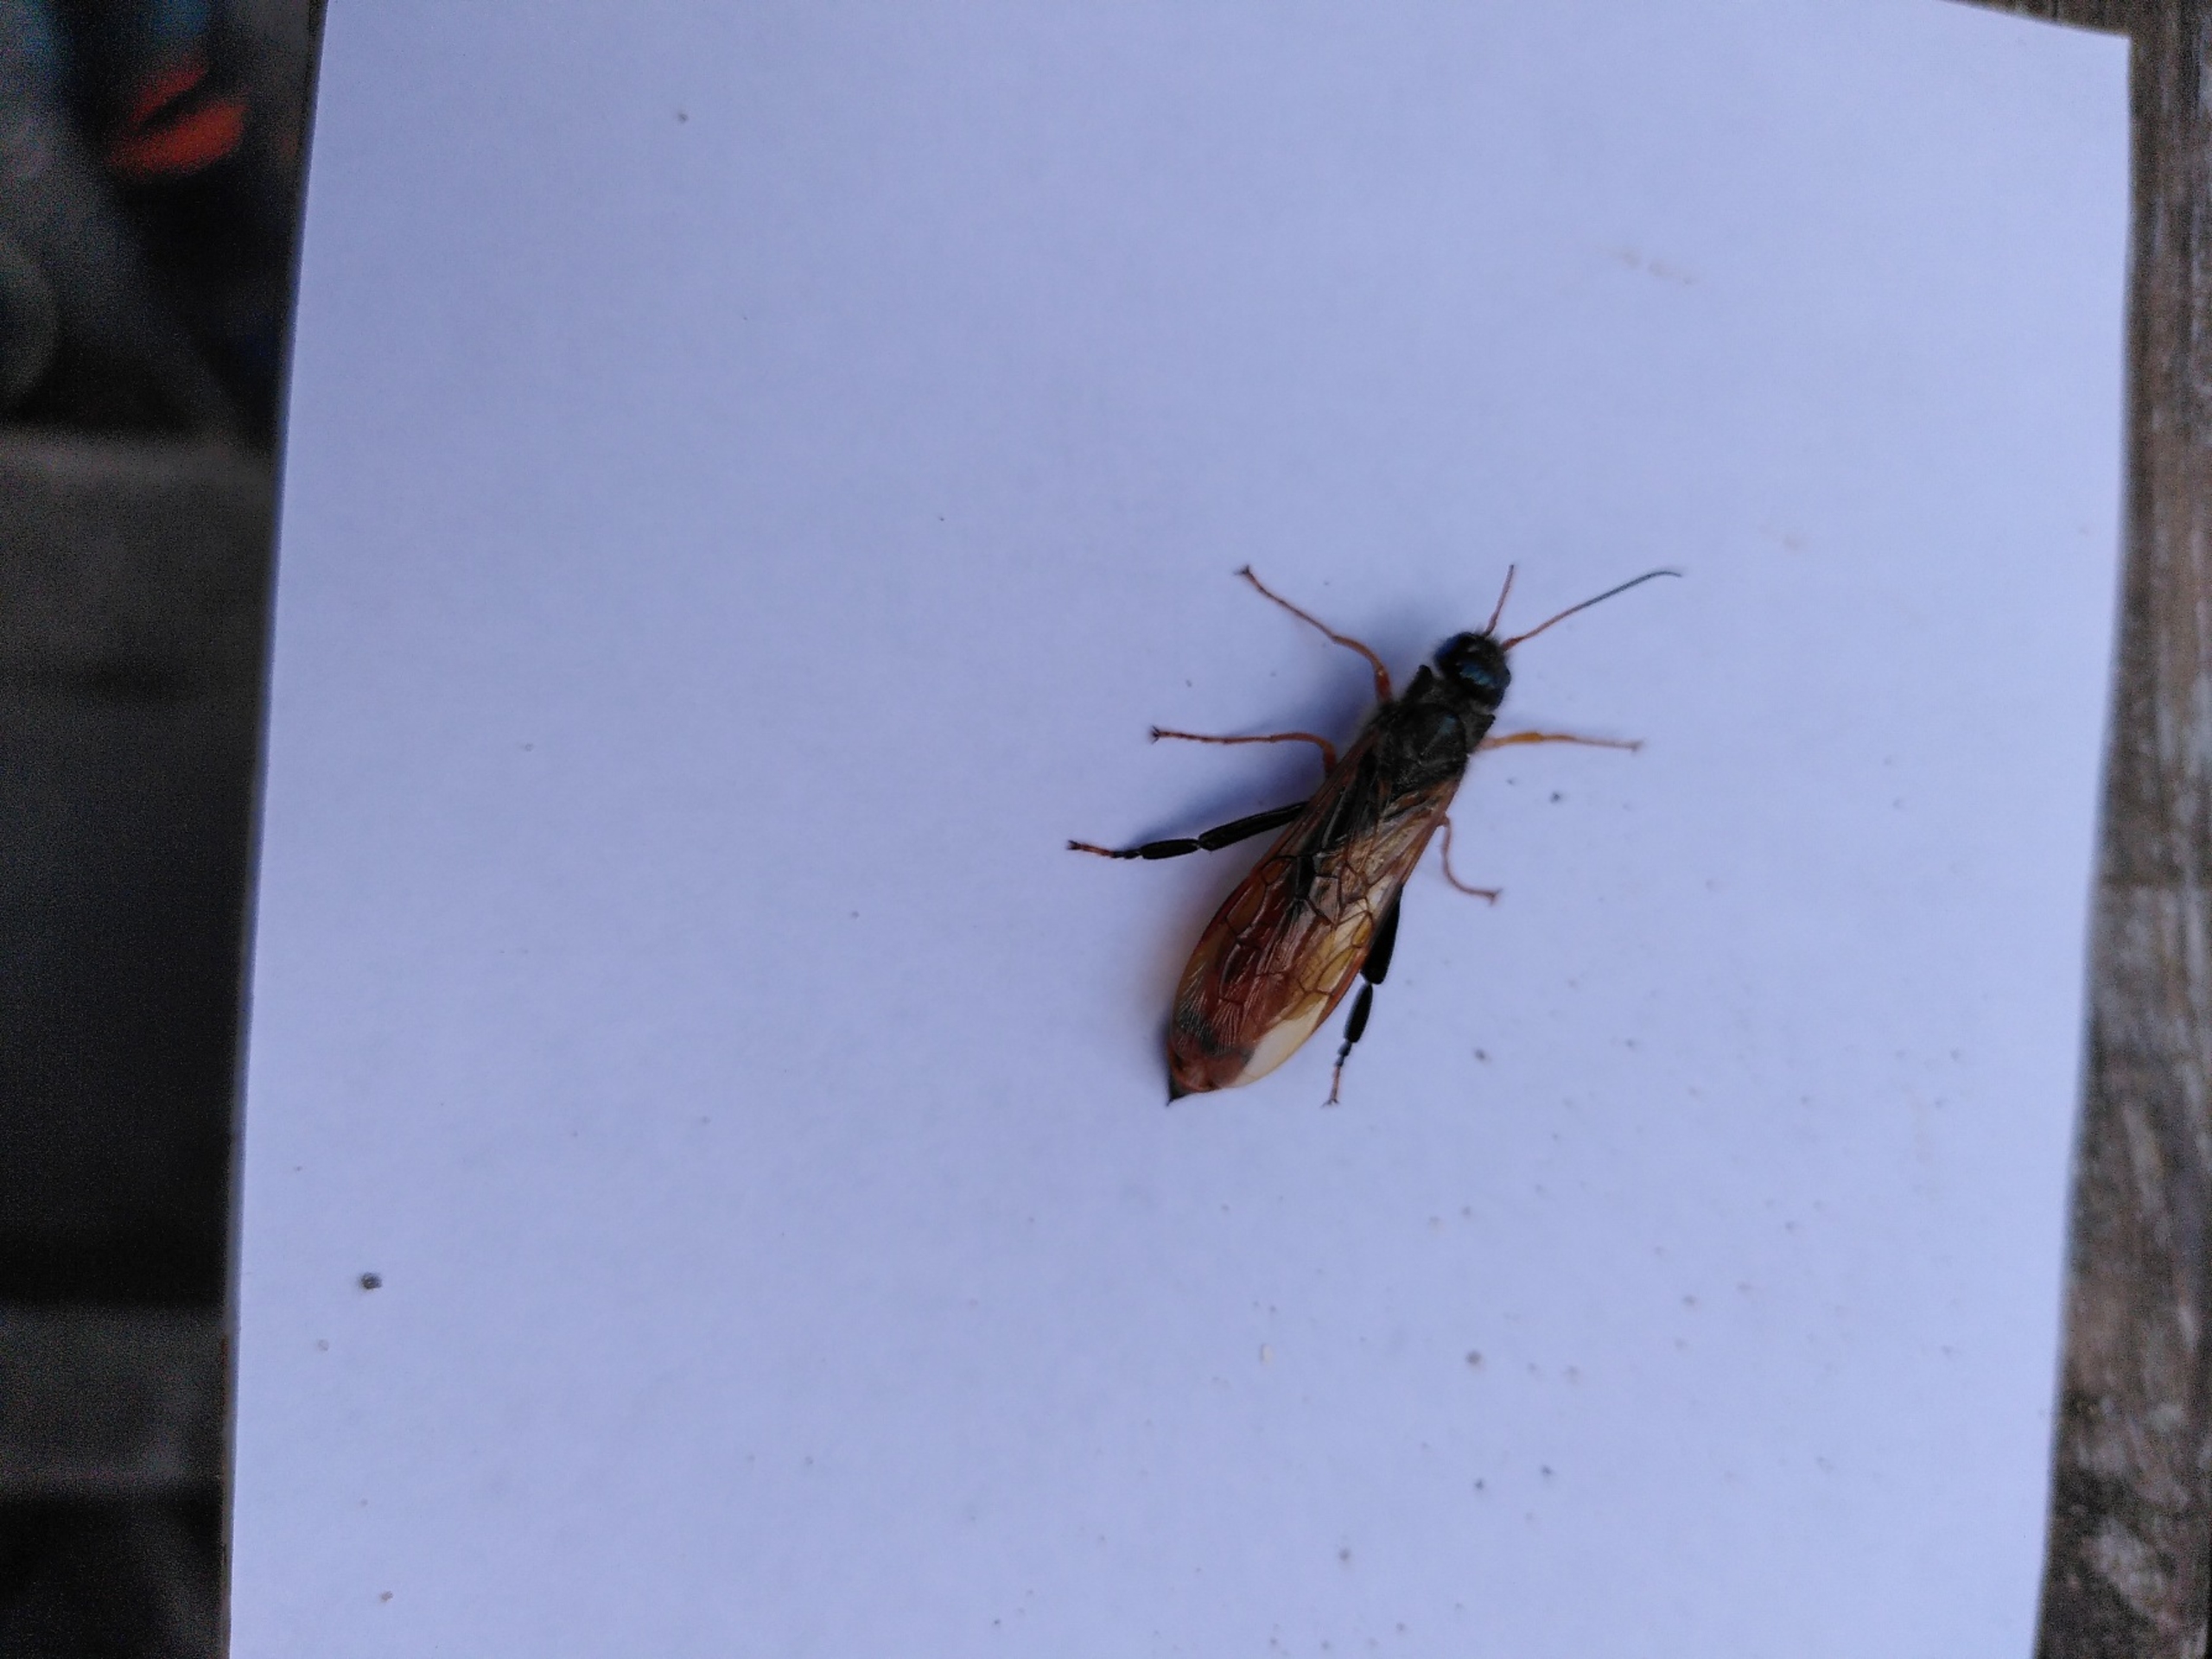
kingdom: Animalia
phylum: Arthropoda
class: Insecta
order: Hymenoptera
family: Siricidae
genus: Urocerus
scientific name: Urocerus gigas
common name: Kæmpetræhveps
